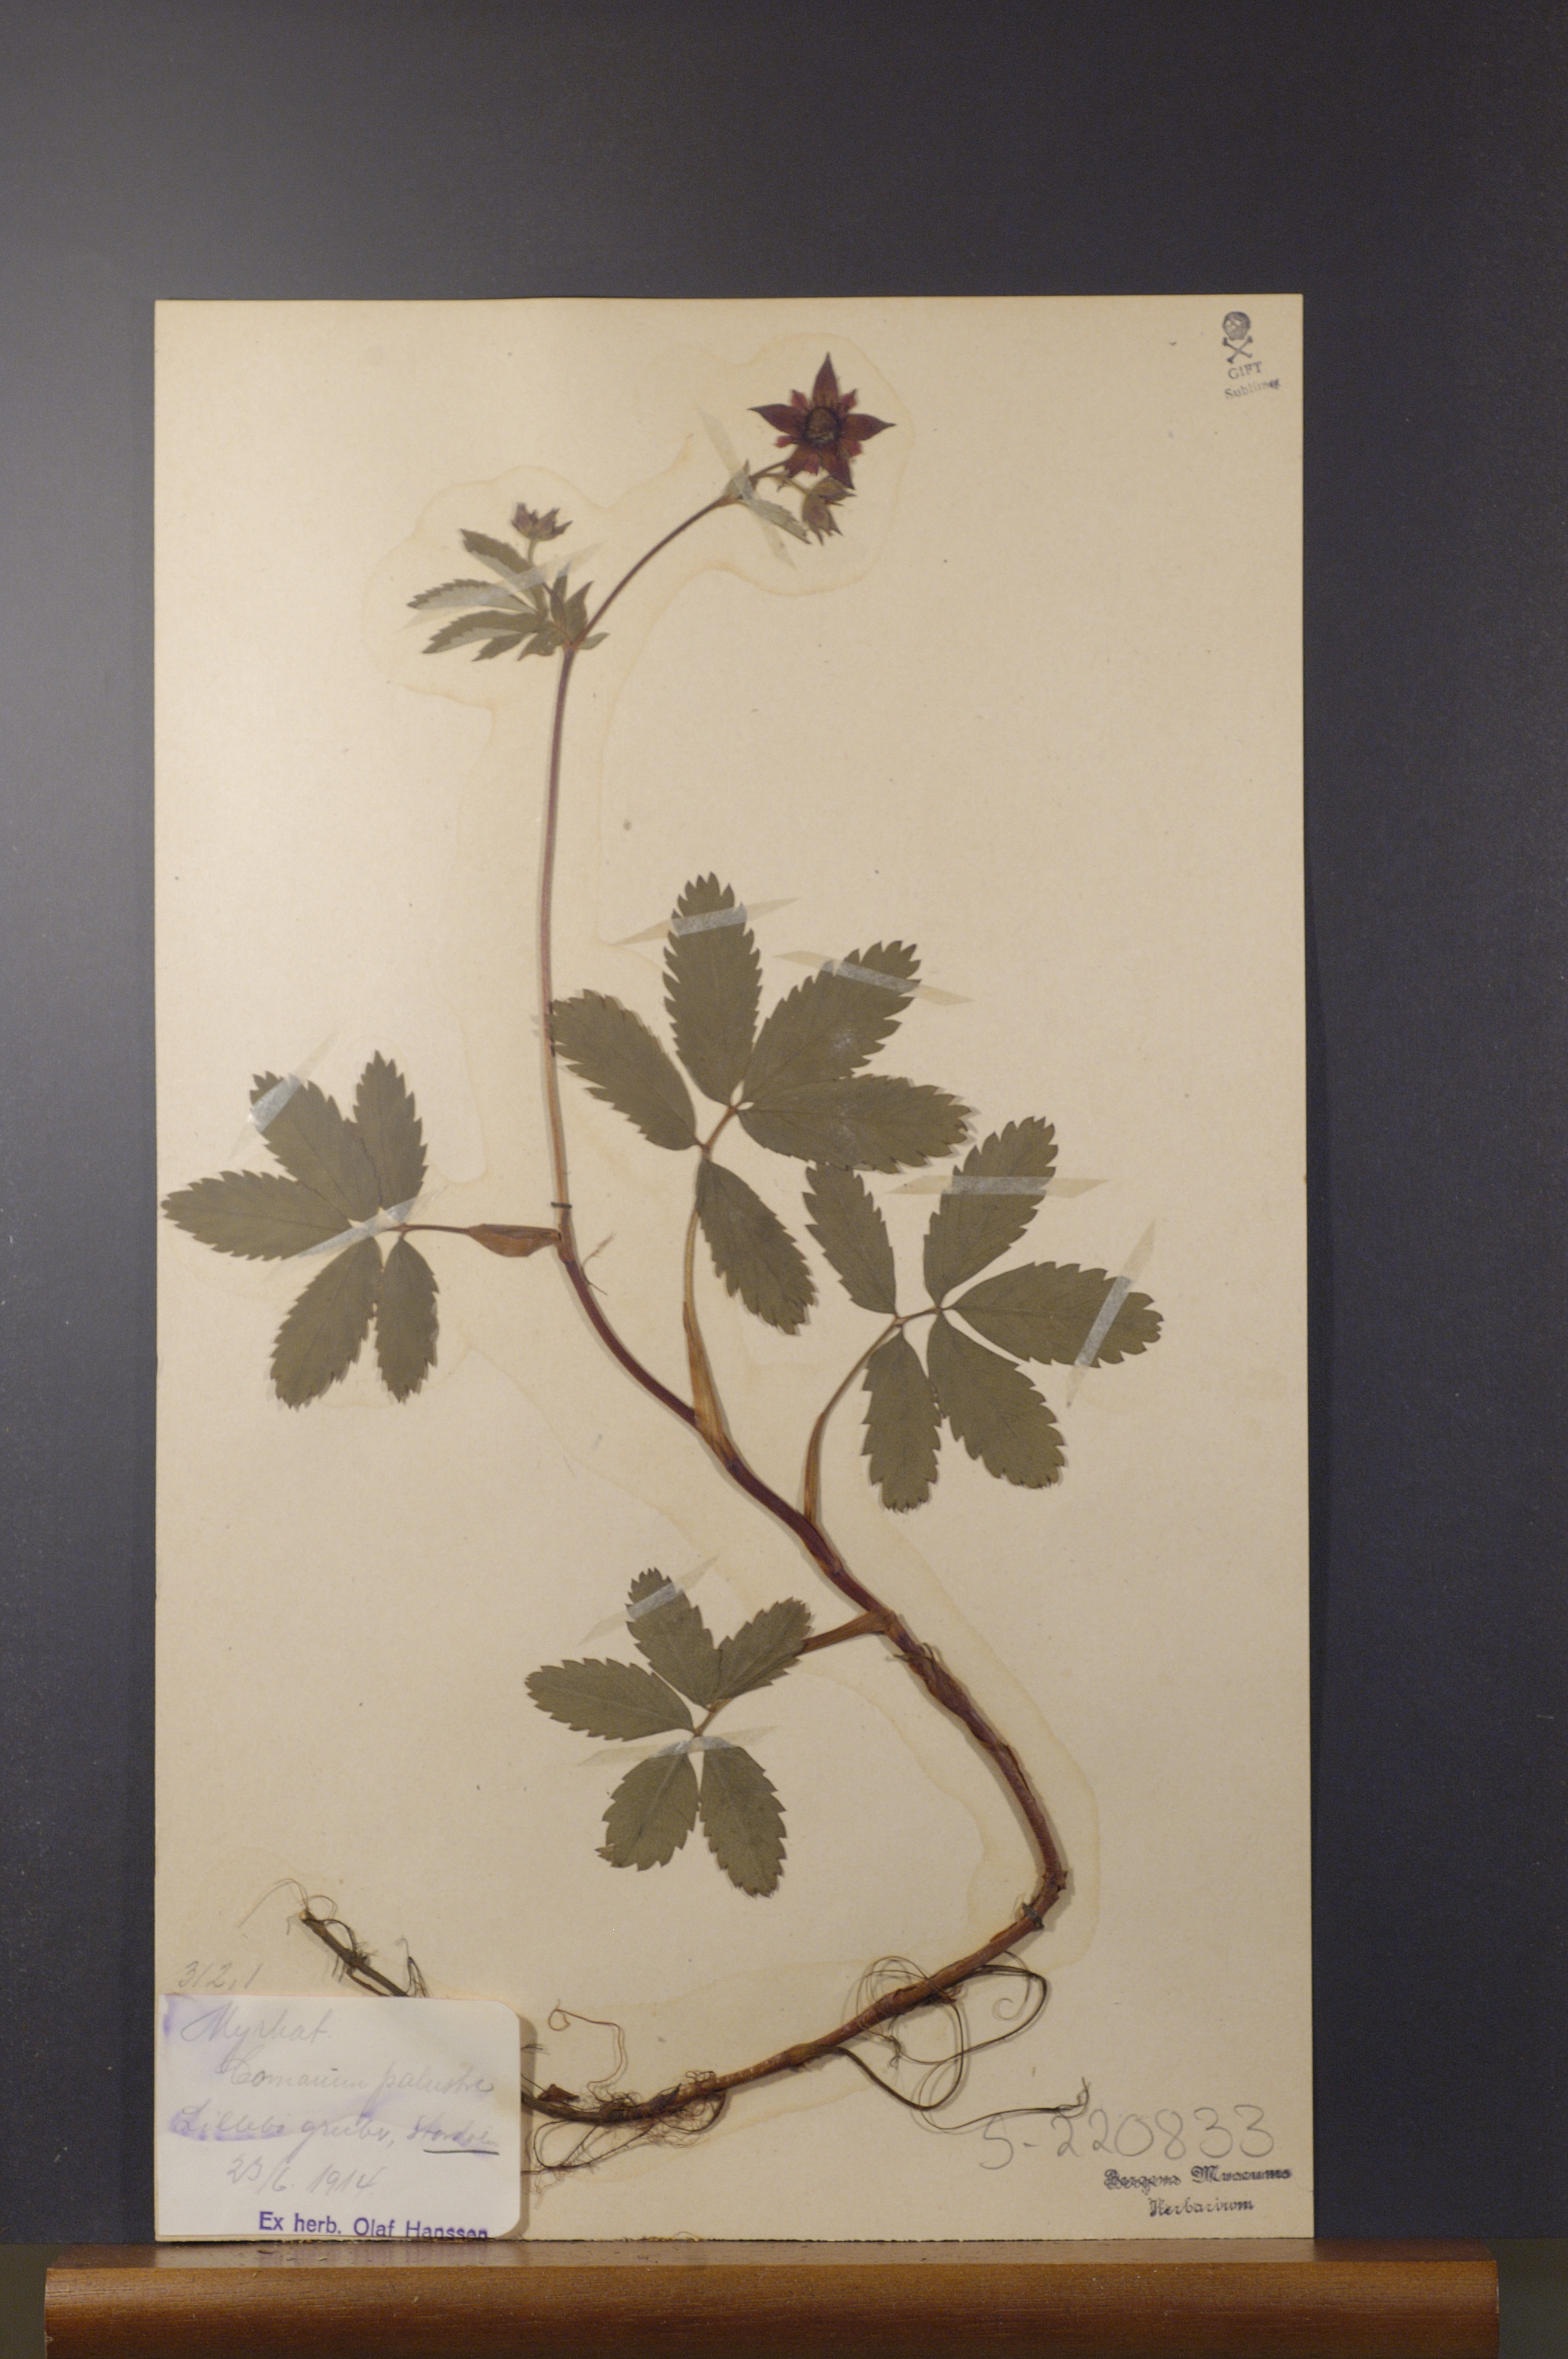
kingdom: Plantae
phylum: Tracheophyta
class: Magnoliopsida
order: Rosales
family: Rosaceae
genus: Comarum
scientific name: Comarum palustre
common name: Marsh cinquefoil
